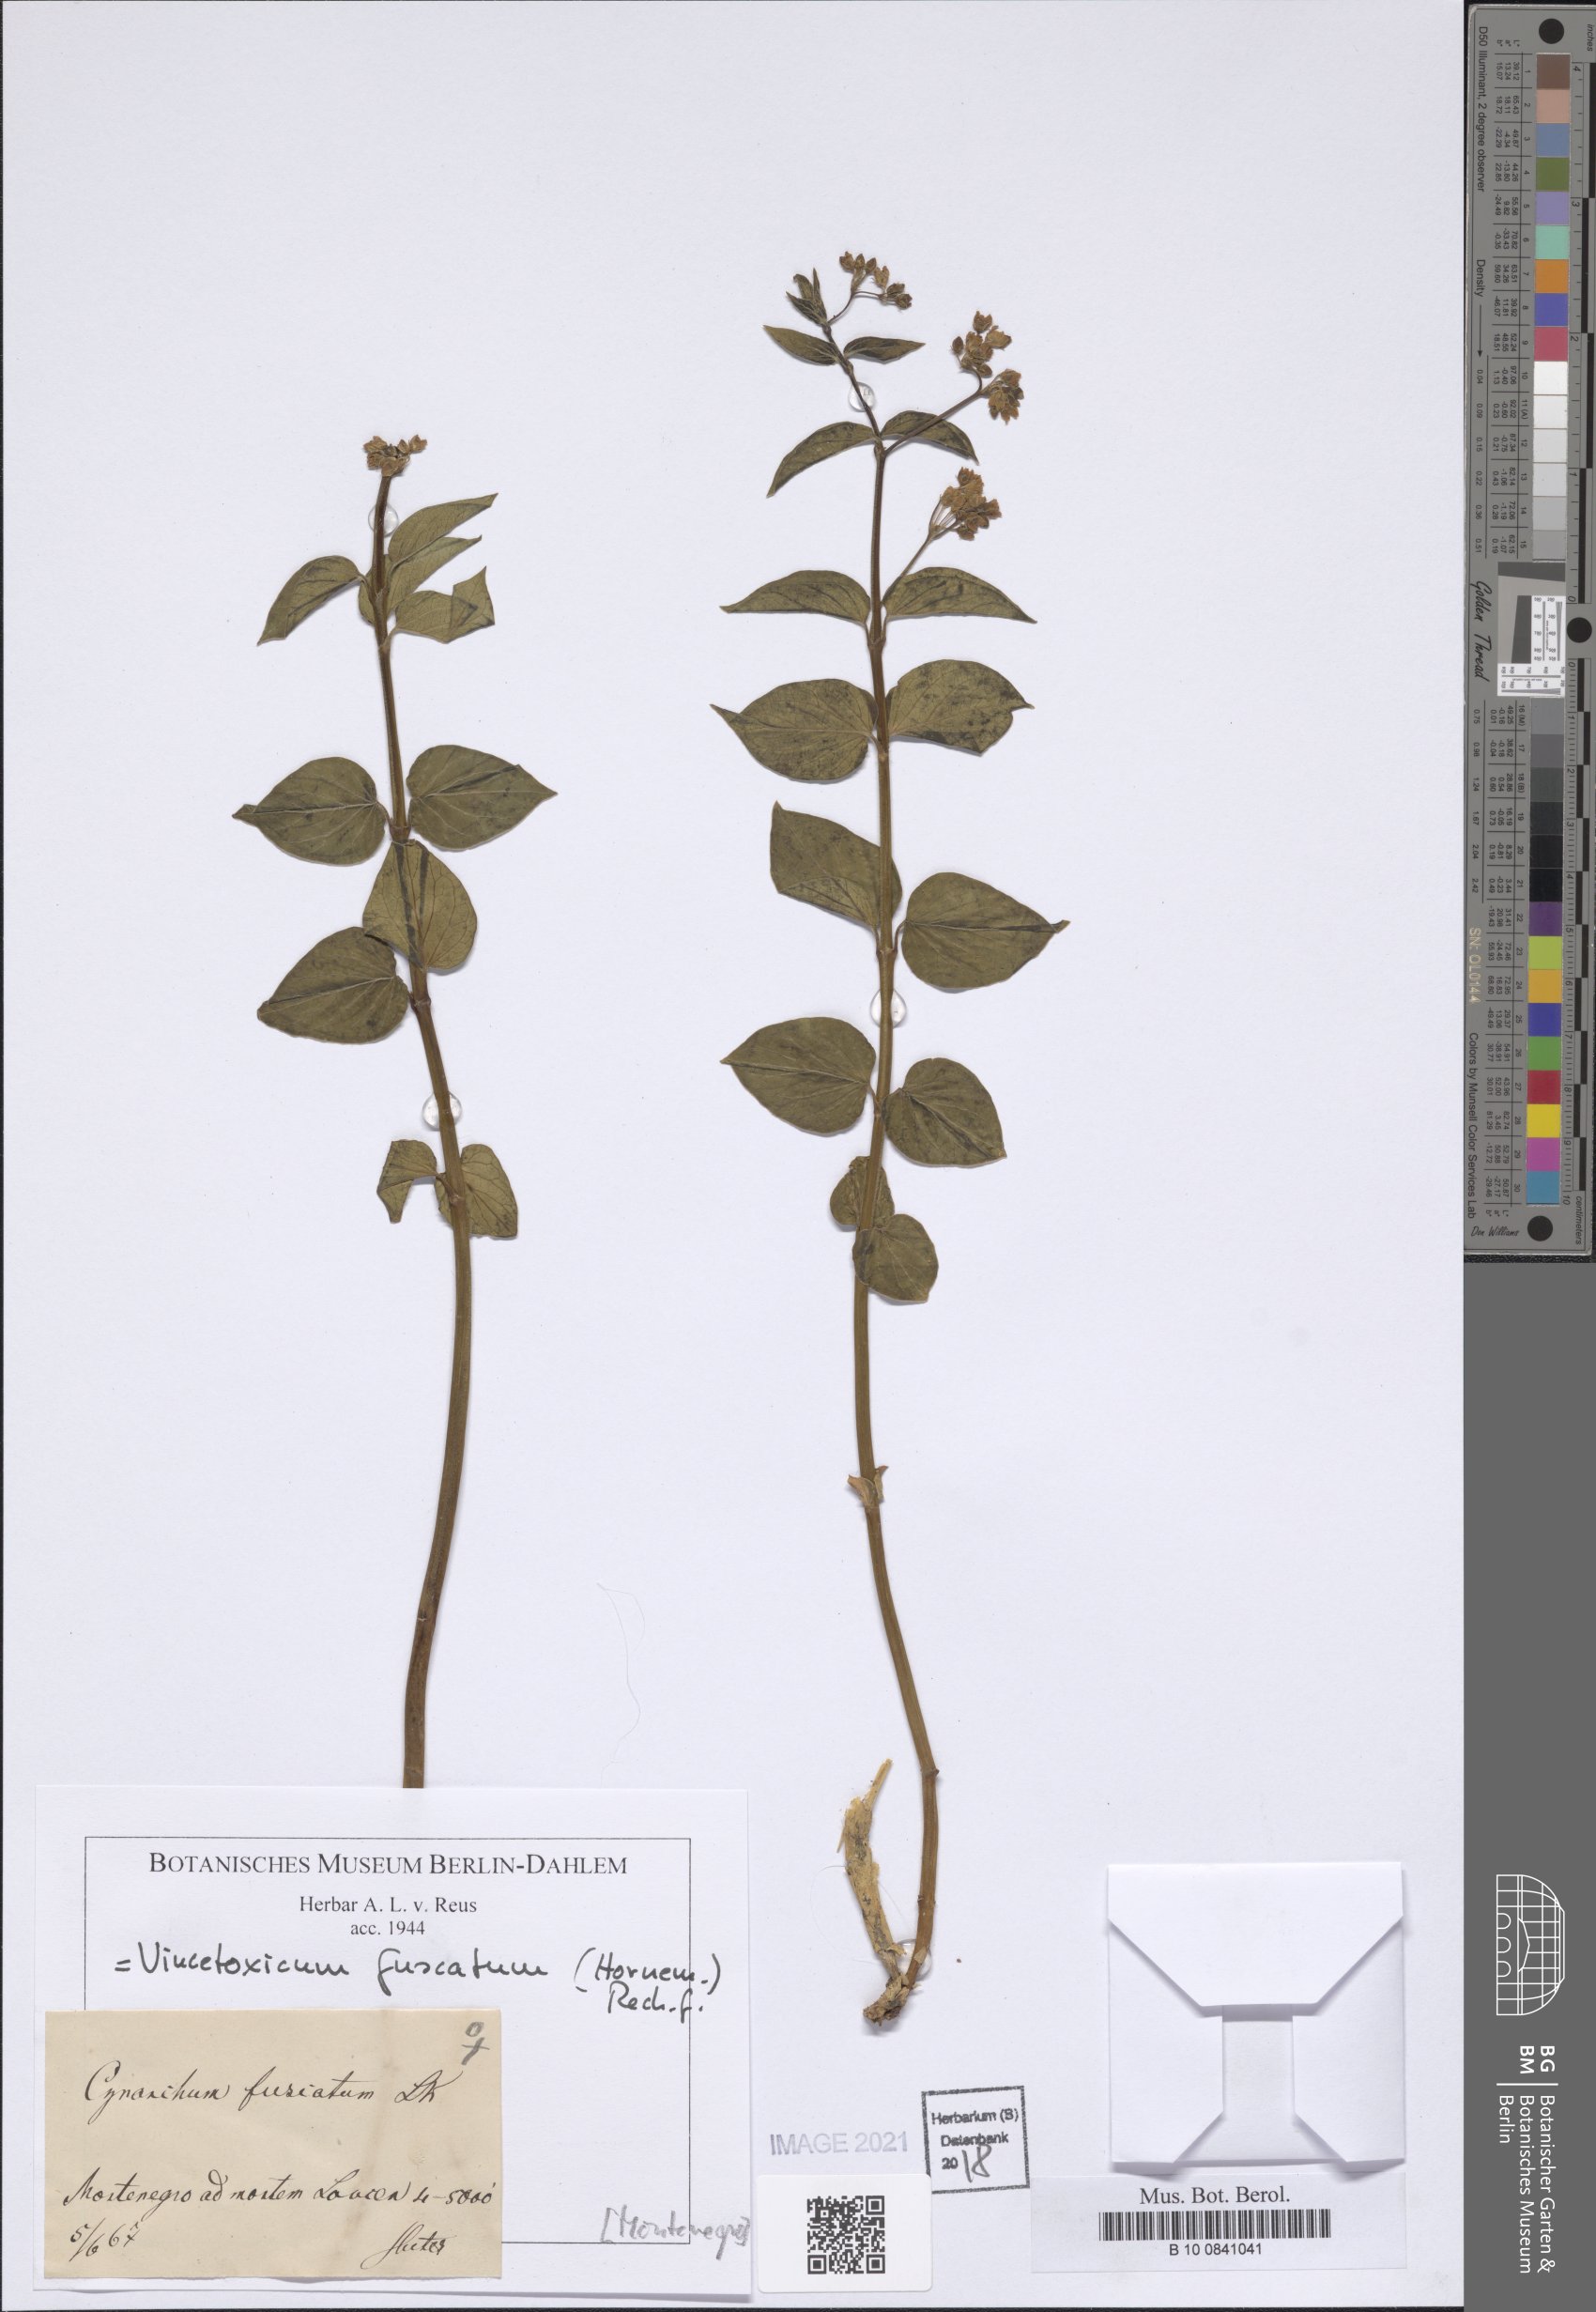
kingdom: Plantae
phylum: Tracheophyta
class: Magnoliopsida
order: Gentianales
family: Apocynaceae
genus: Vincetoxicum
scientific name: Vincetoxicum fuscatum
